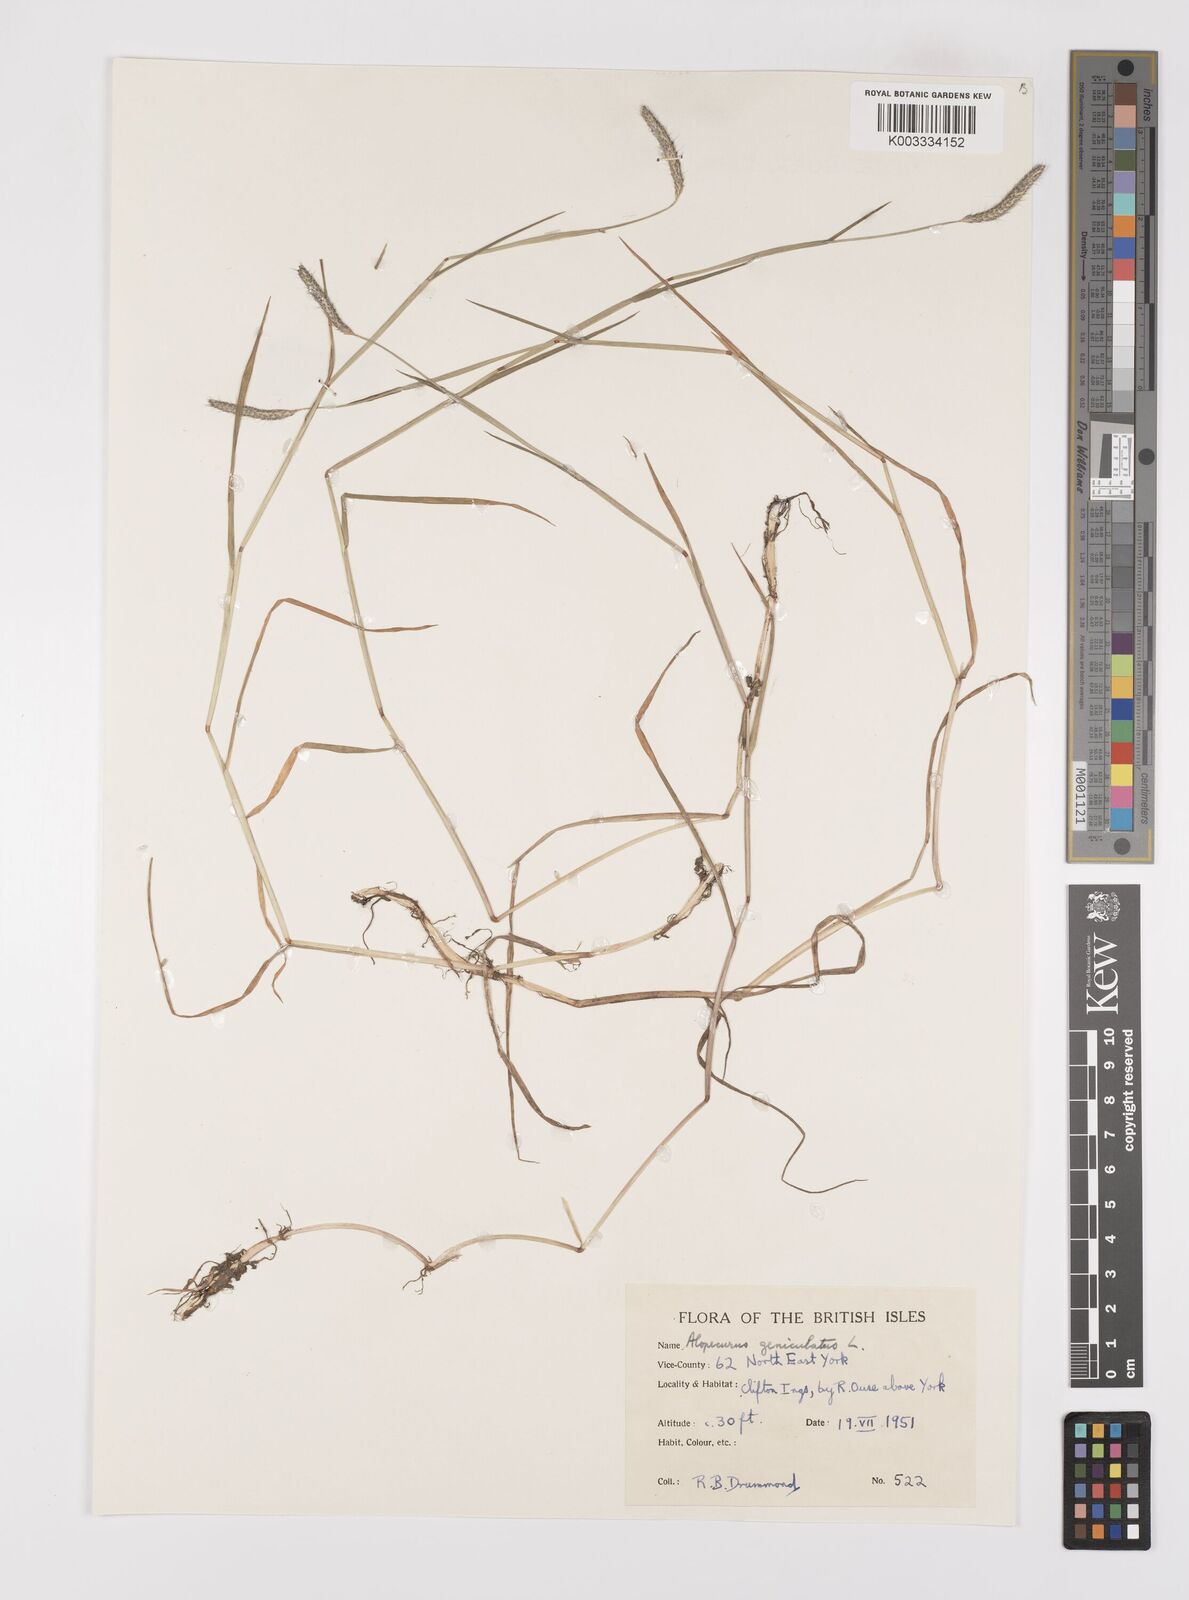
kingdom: Plantae
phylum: Tracheophyta
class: Liliopsida
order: Poales
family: Poaceae
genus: Alopecurus
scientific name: Alopecurus geniculatus
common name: Water foxtail
